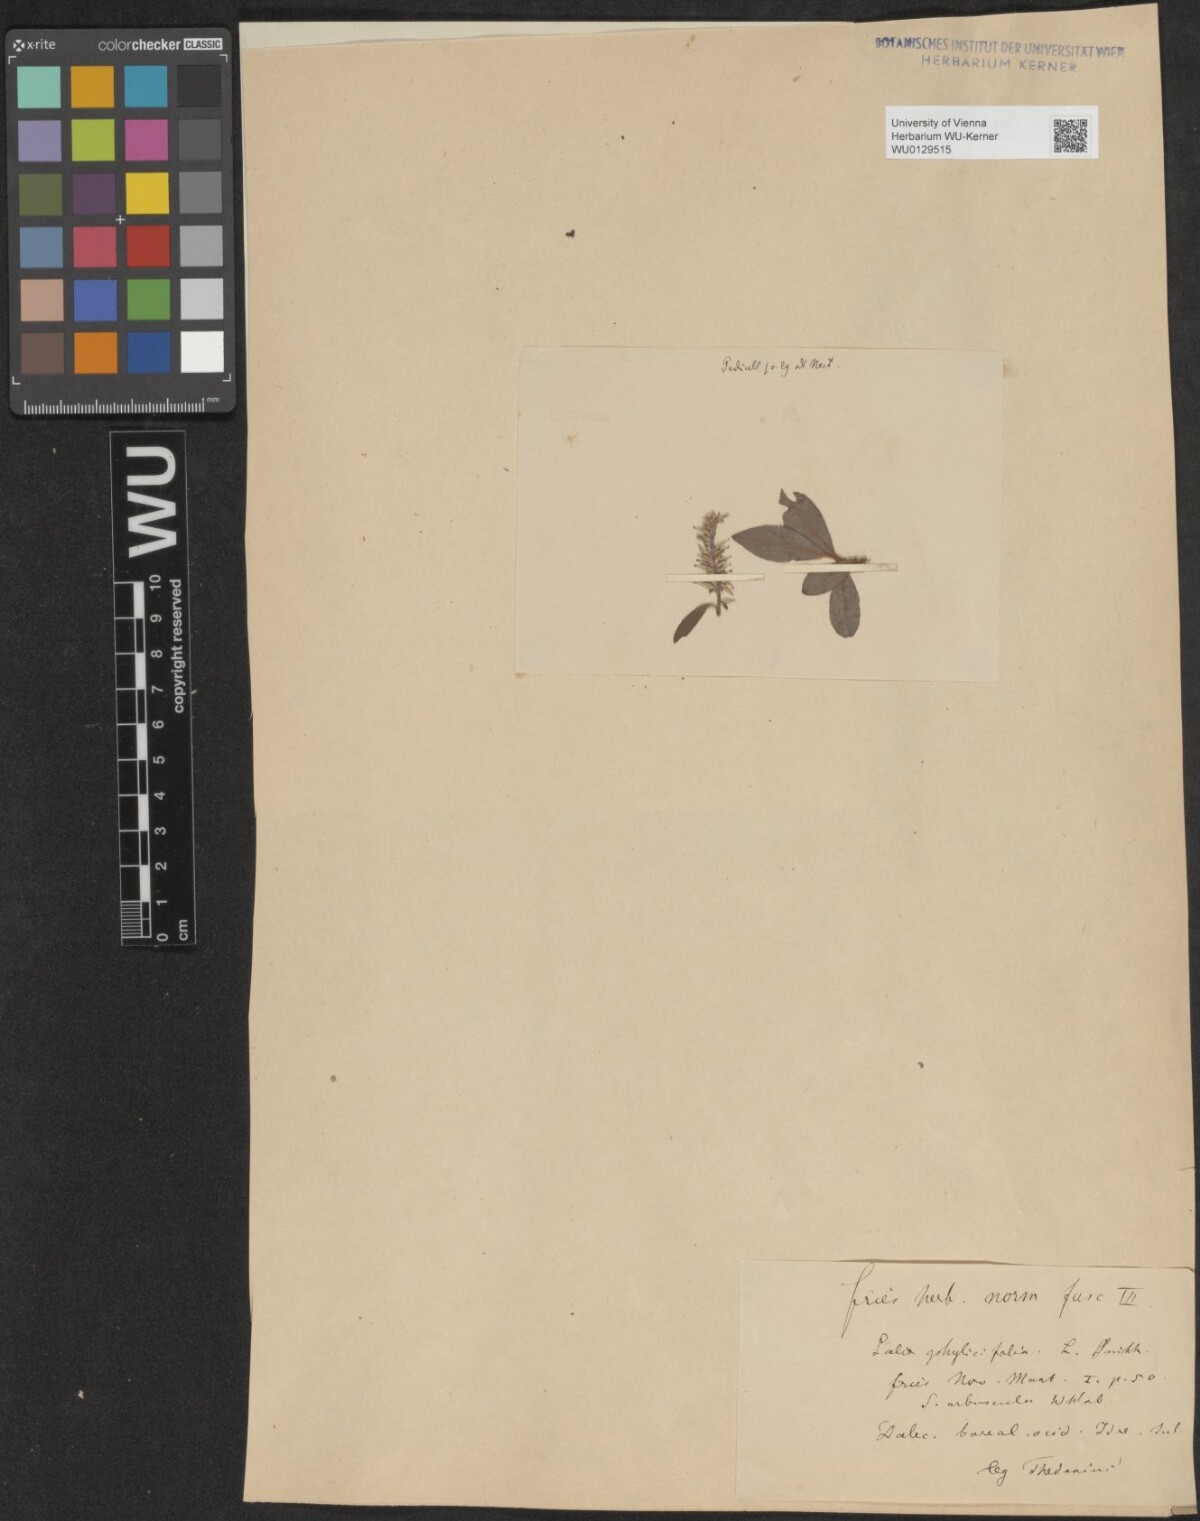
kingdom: Plantae
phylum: Tracheophyta
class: Magnoliopsida
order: Malpighiales
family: Salicaceae
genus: Salix
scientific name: Salix bicolor
